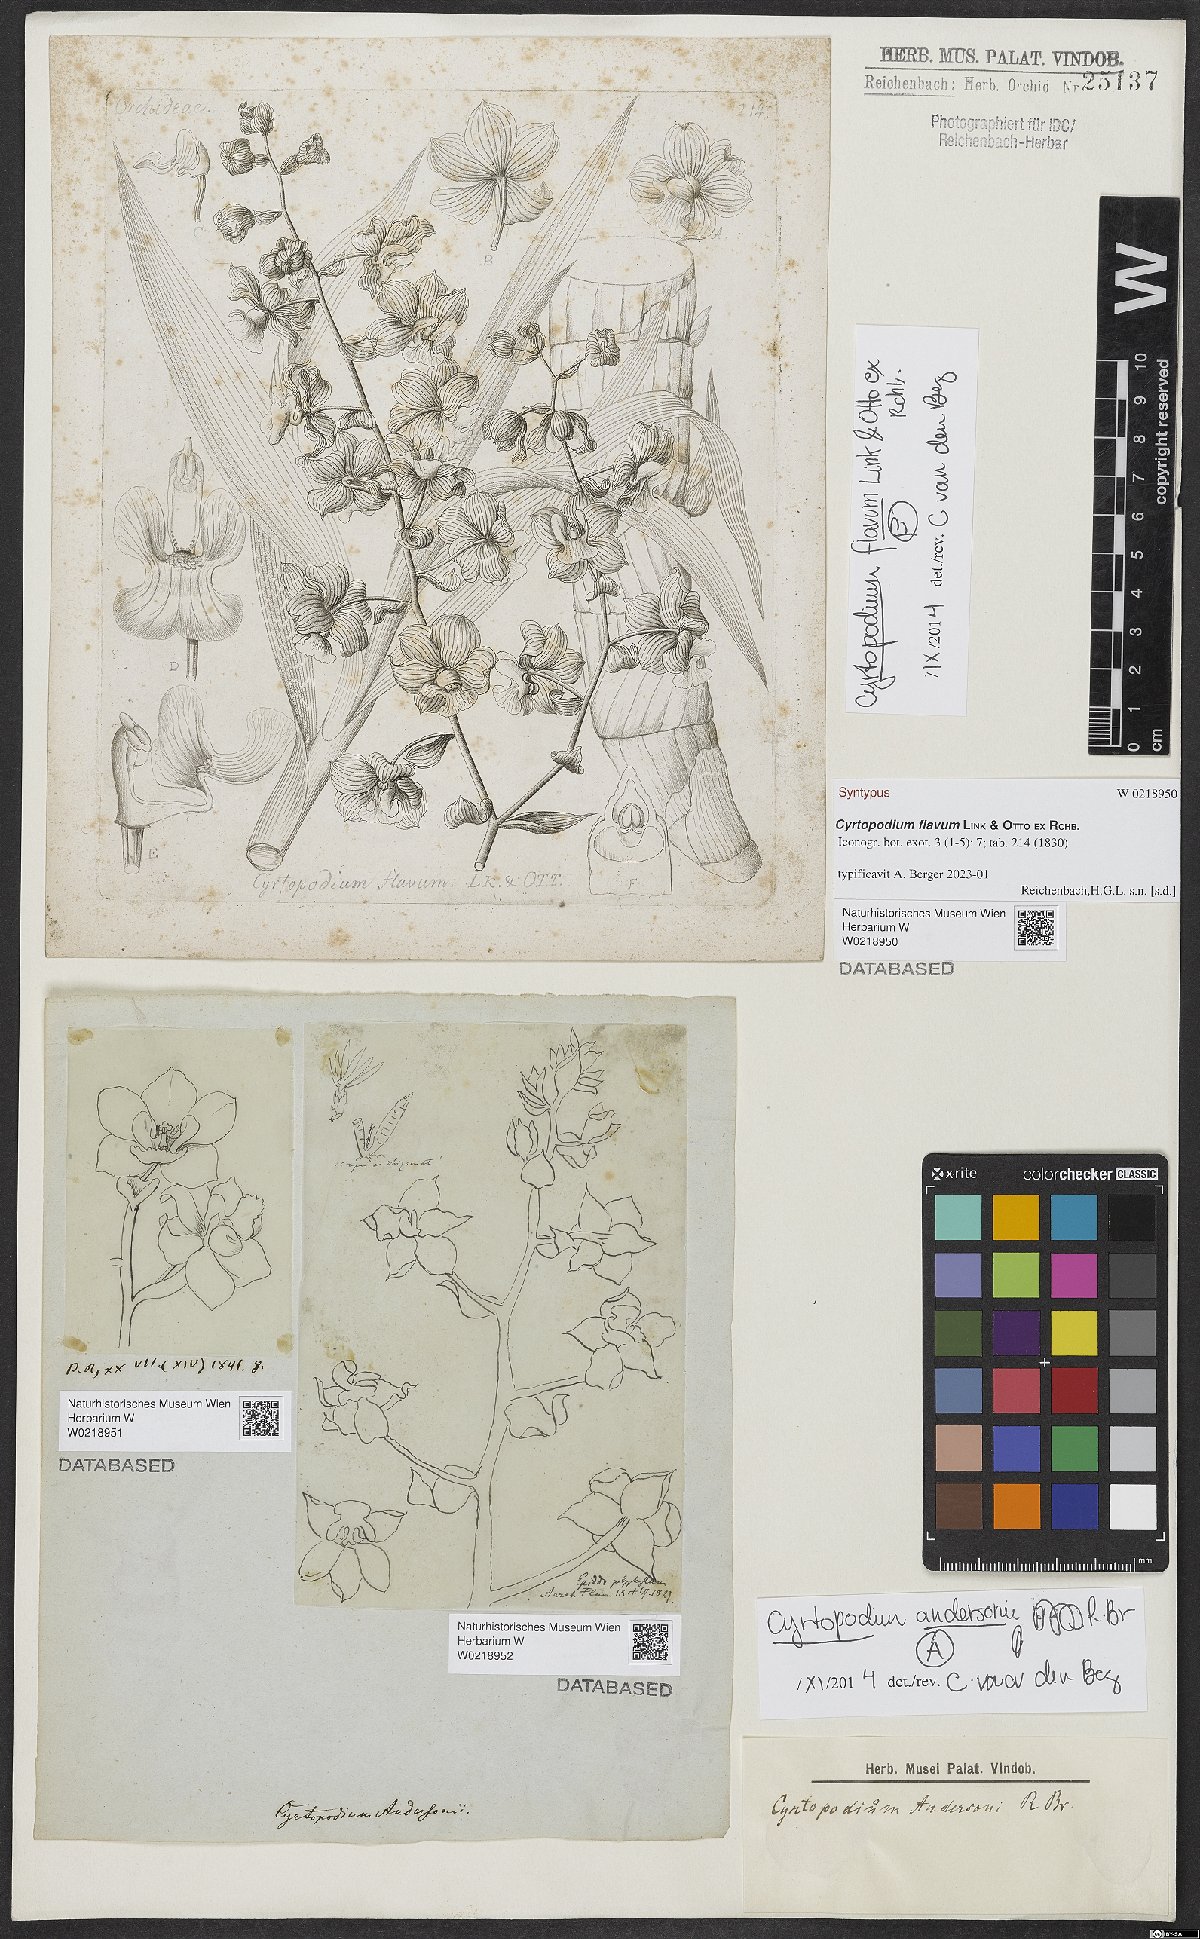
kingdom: Plantae
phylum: Tracheophyta
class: Liliopsida
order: Asparagales
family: Orchidaceae
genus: Cyrtopodium
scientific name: Cyrtopodium flavum
